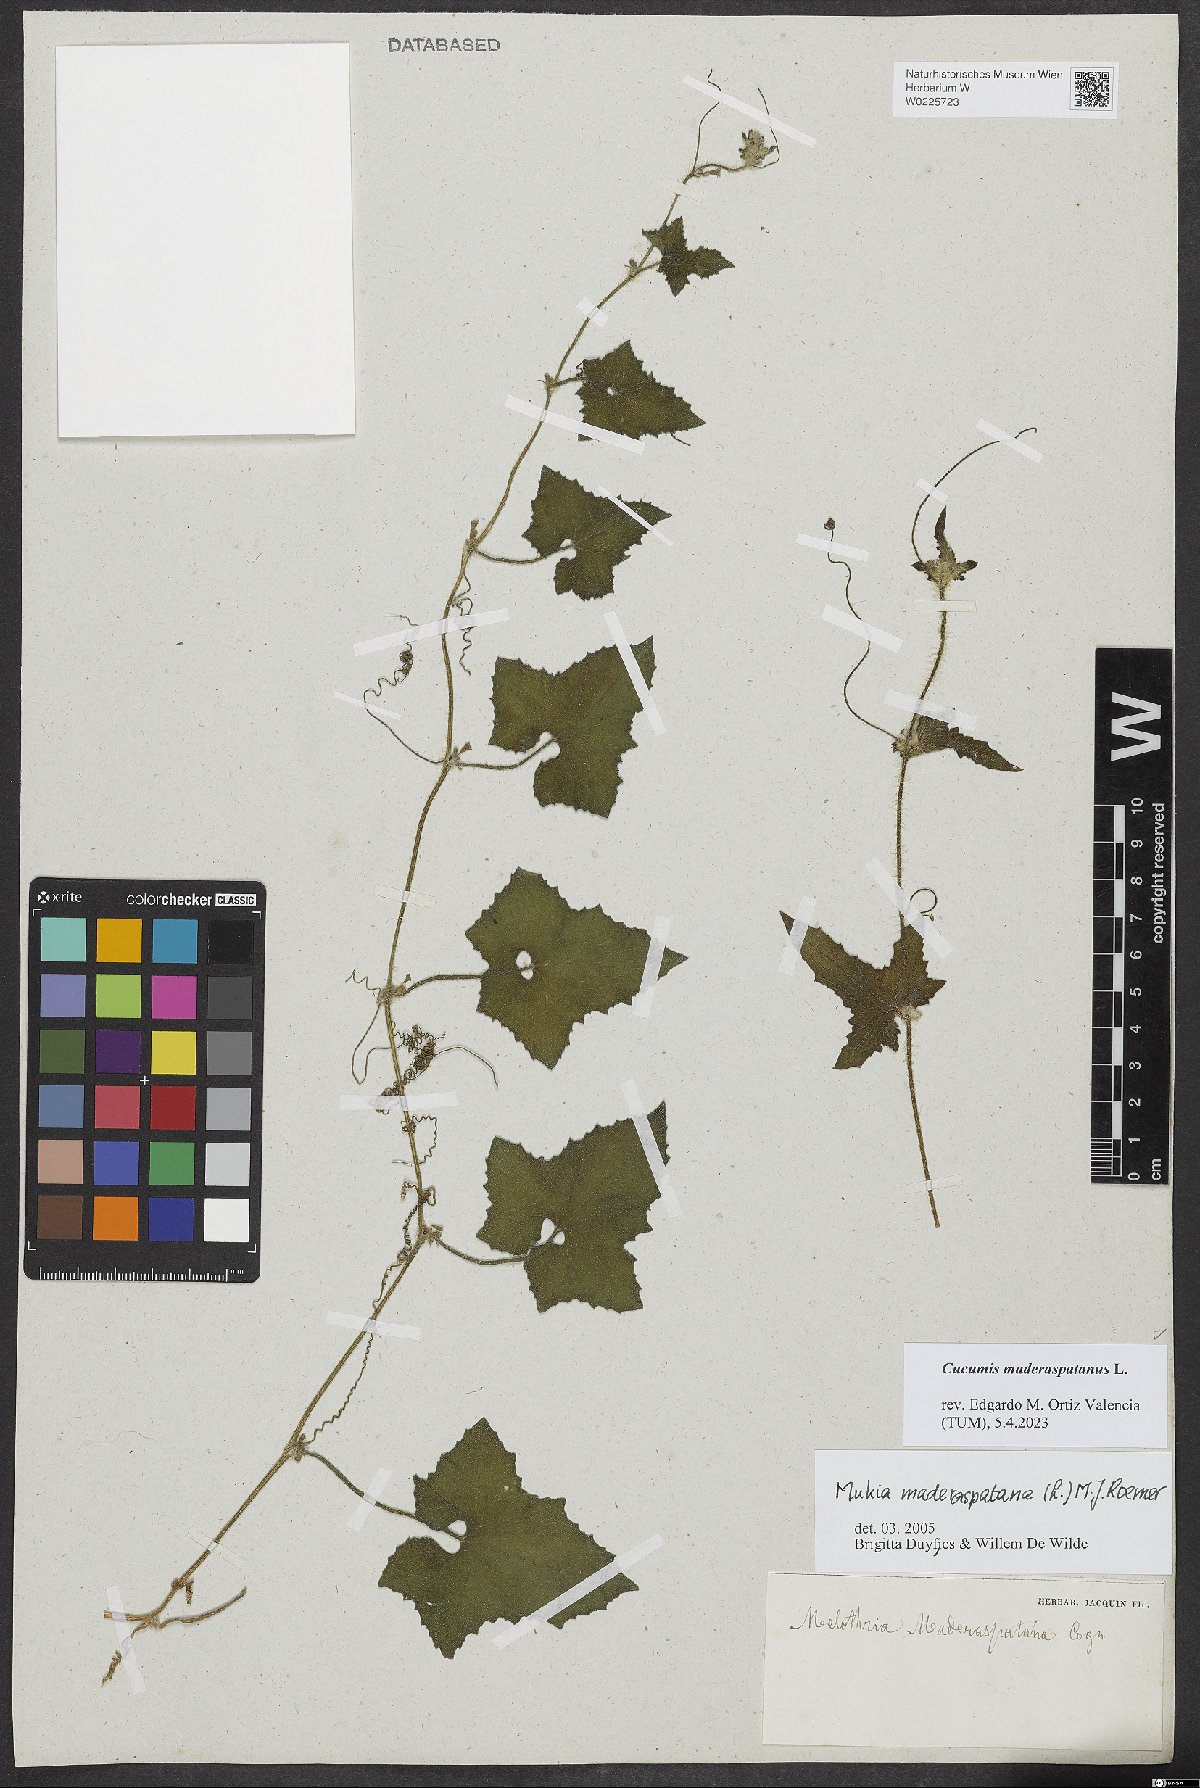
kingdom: Plantae
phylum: Tracheophyta
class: Magnoliopsida
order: Cucurbitales
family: Cucurbitaceae
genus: Cucumis
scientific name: Cucumis maderaspatanus
